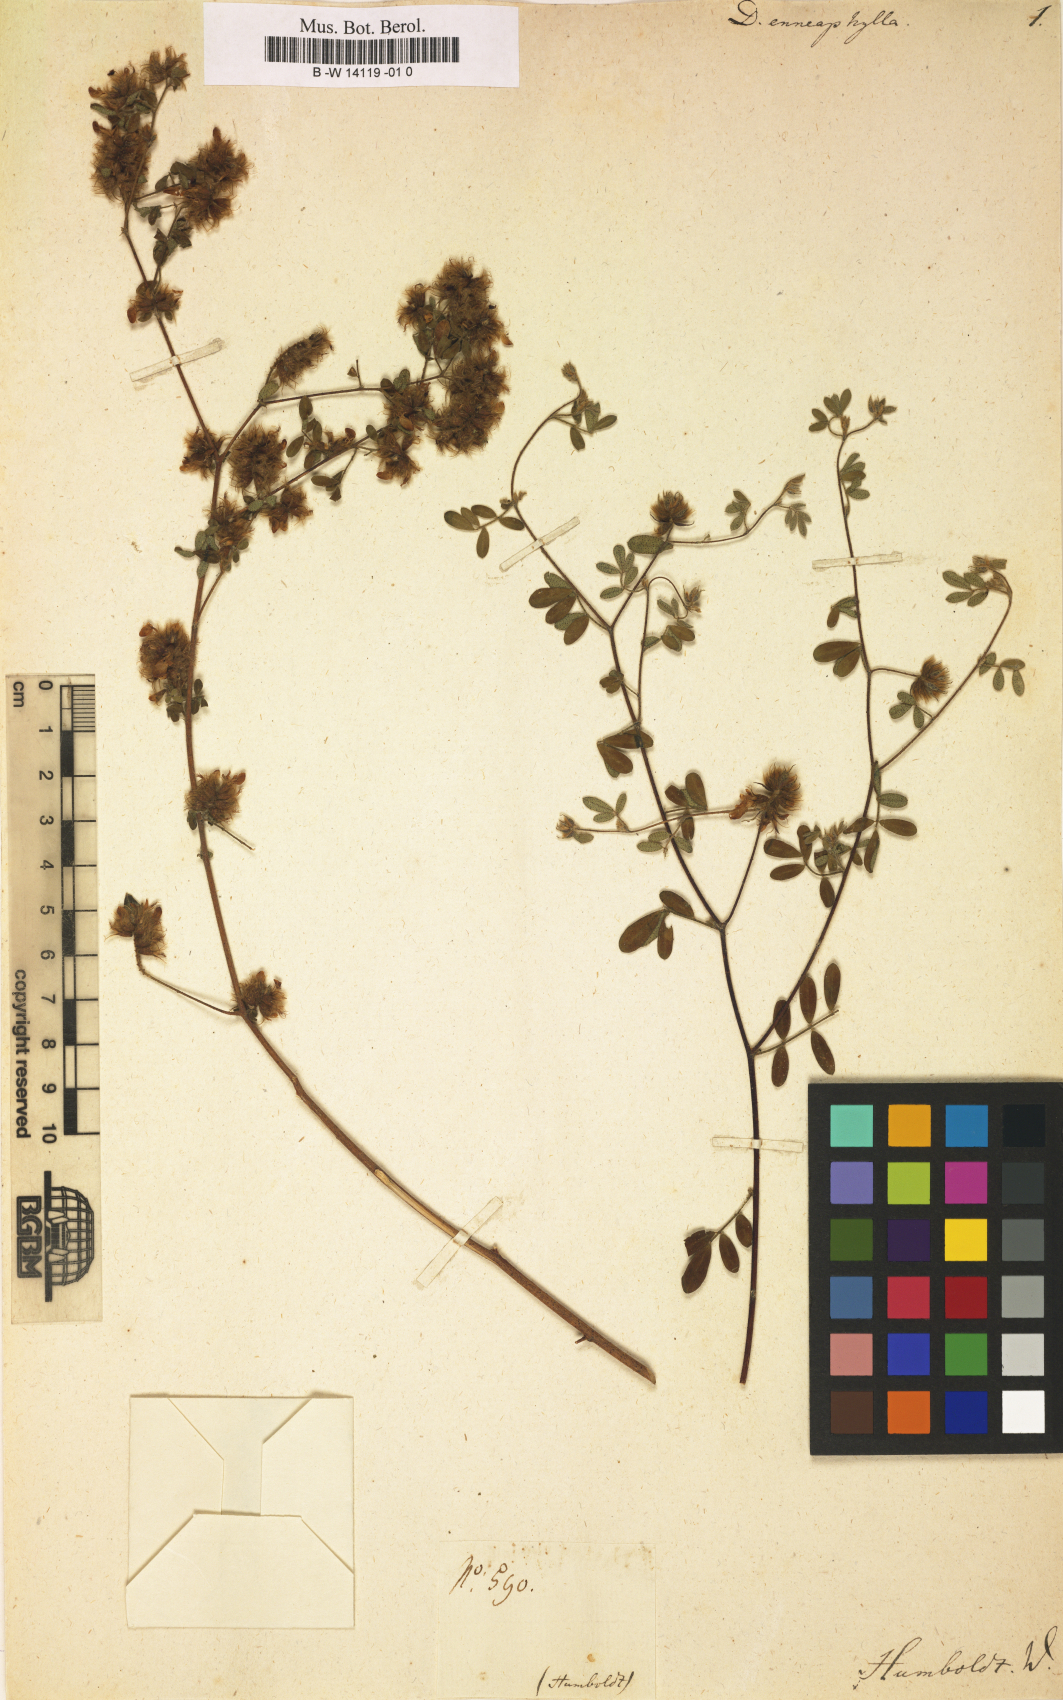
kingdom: Plantae
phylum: Tracheophyta
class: Magnoliopsida
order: Fabales
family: Fabaceae
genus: Dalea
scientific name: Dalea carthagenensis
